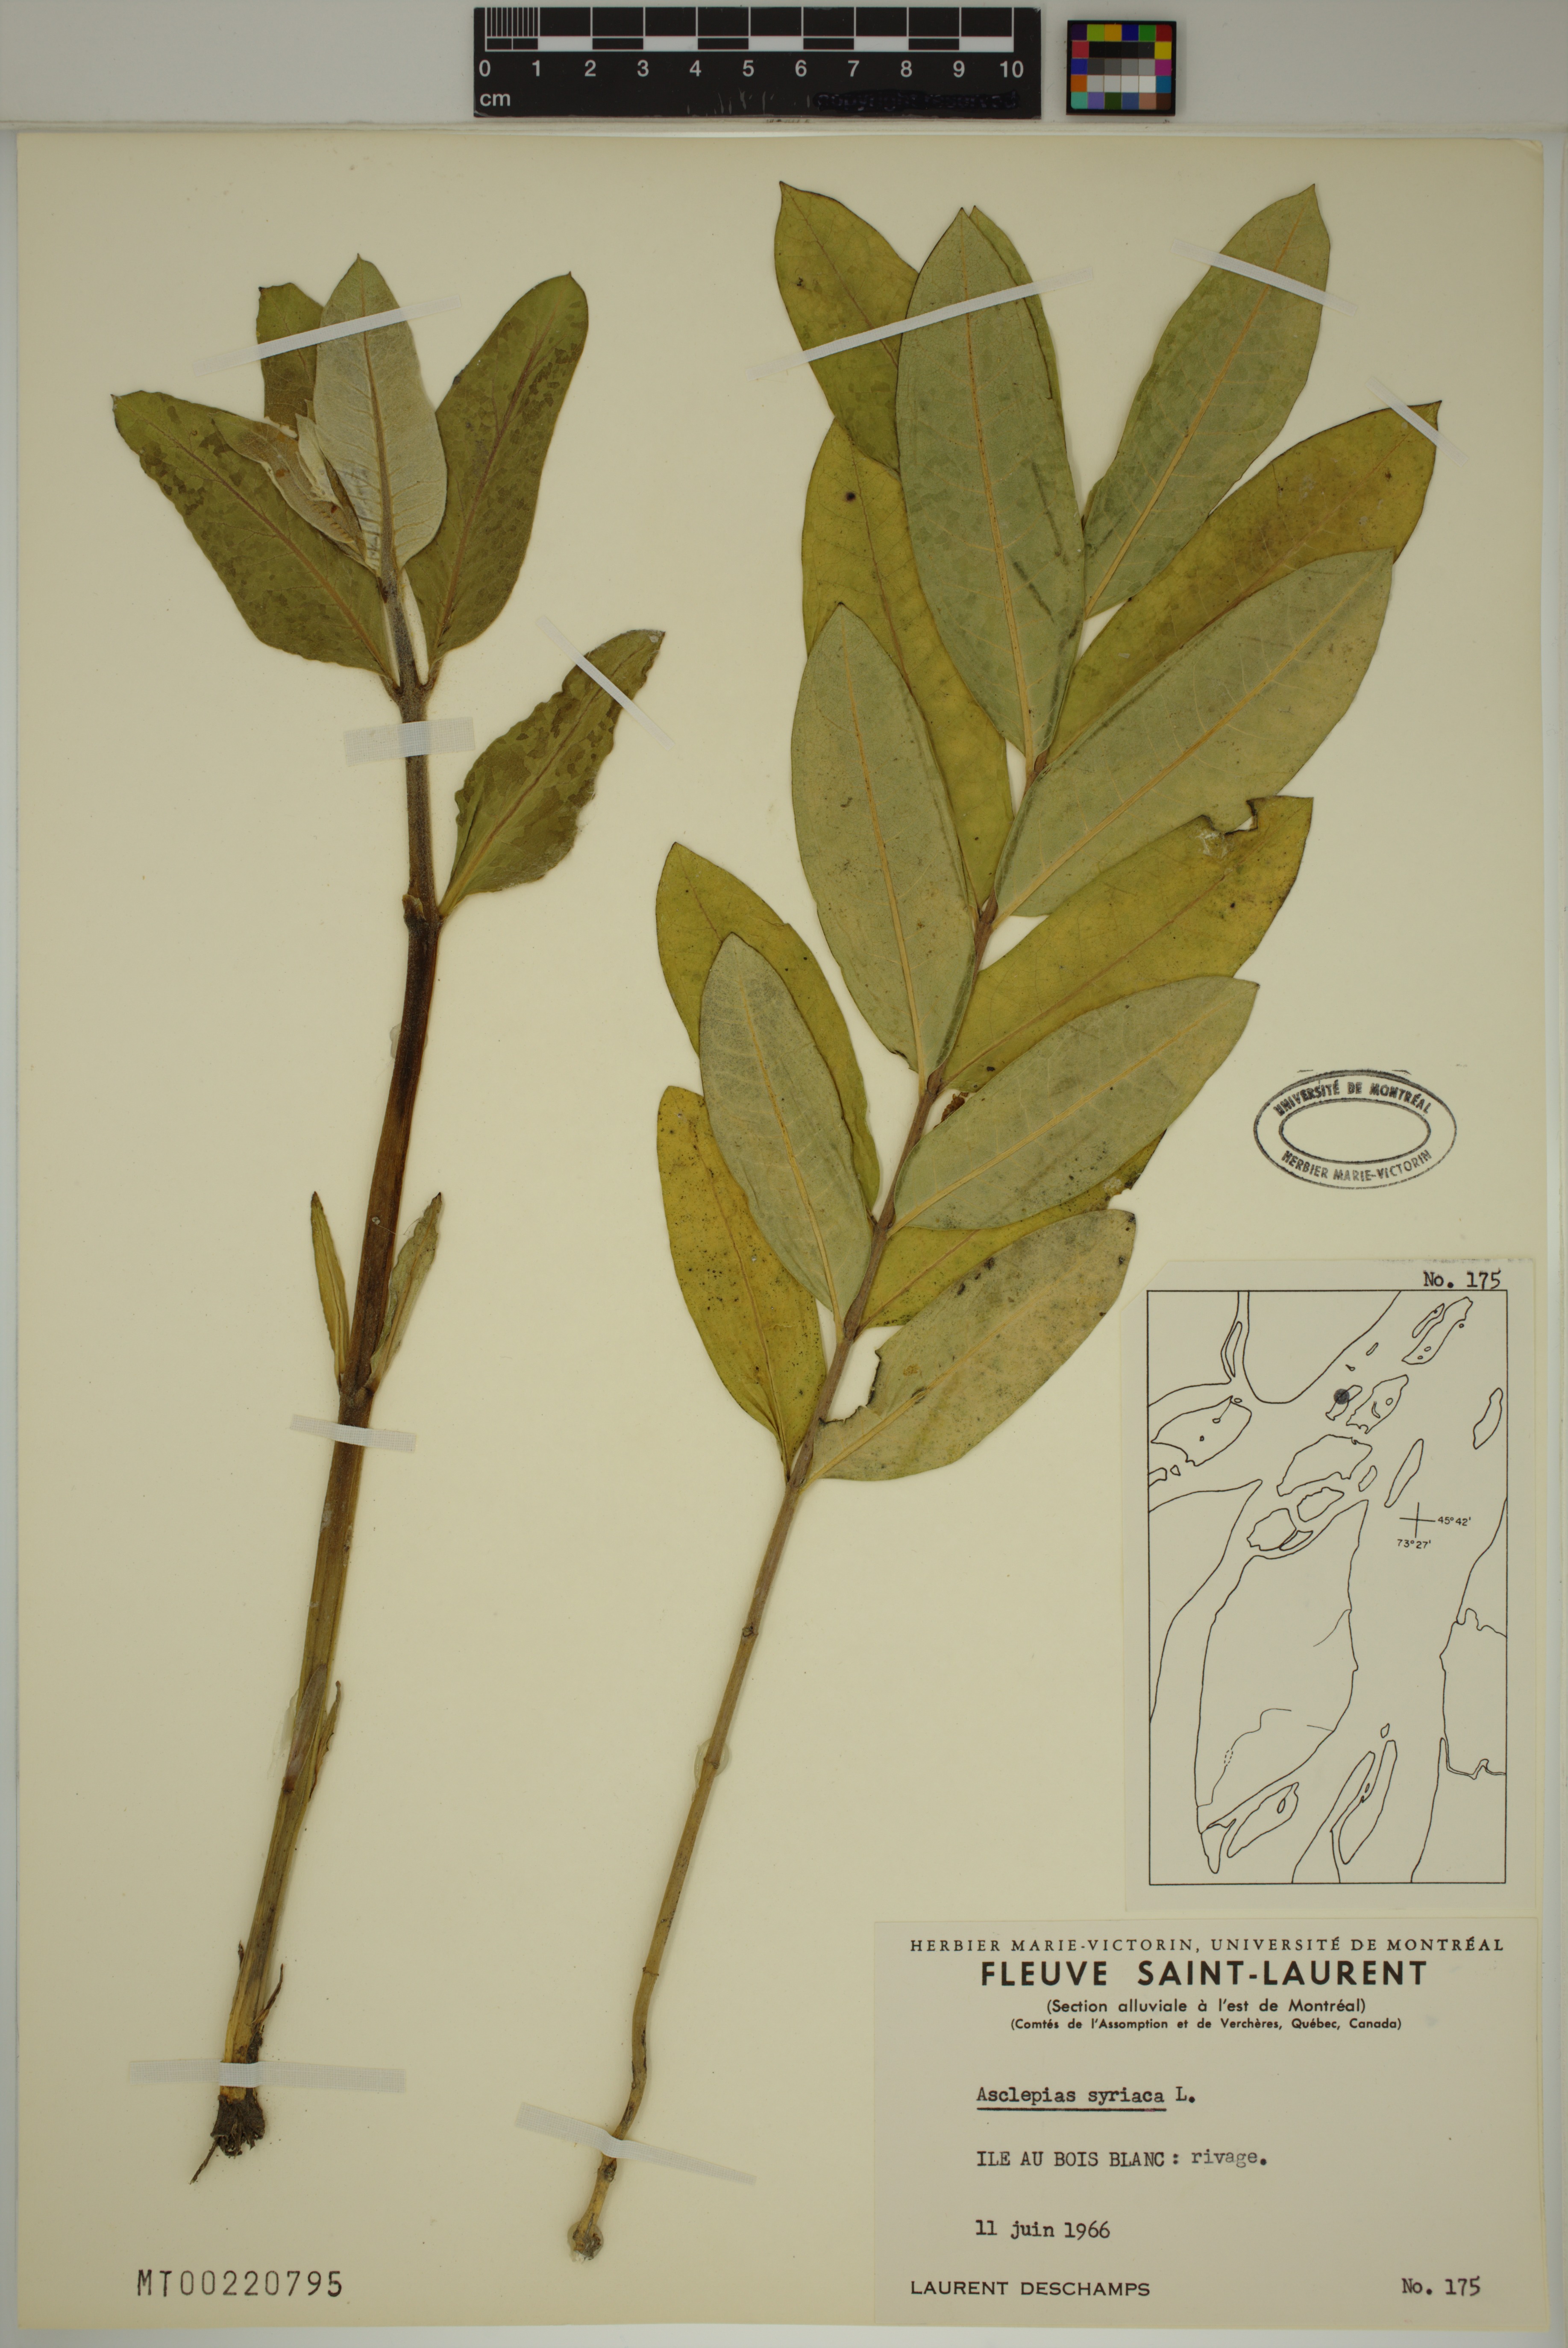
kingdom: Plantae
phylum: Tracheophyta
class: Magnoliopsida
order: Gentianales
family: Apocynaceae
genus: Asclepias
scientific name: Asclepias syriaca
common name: Common milkweed
